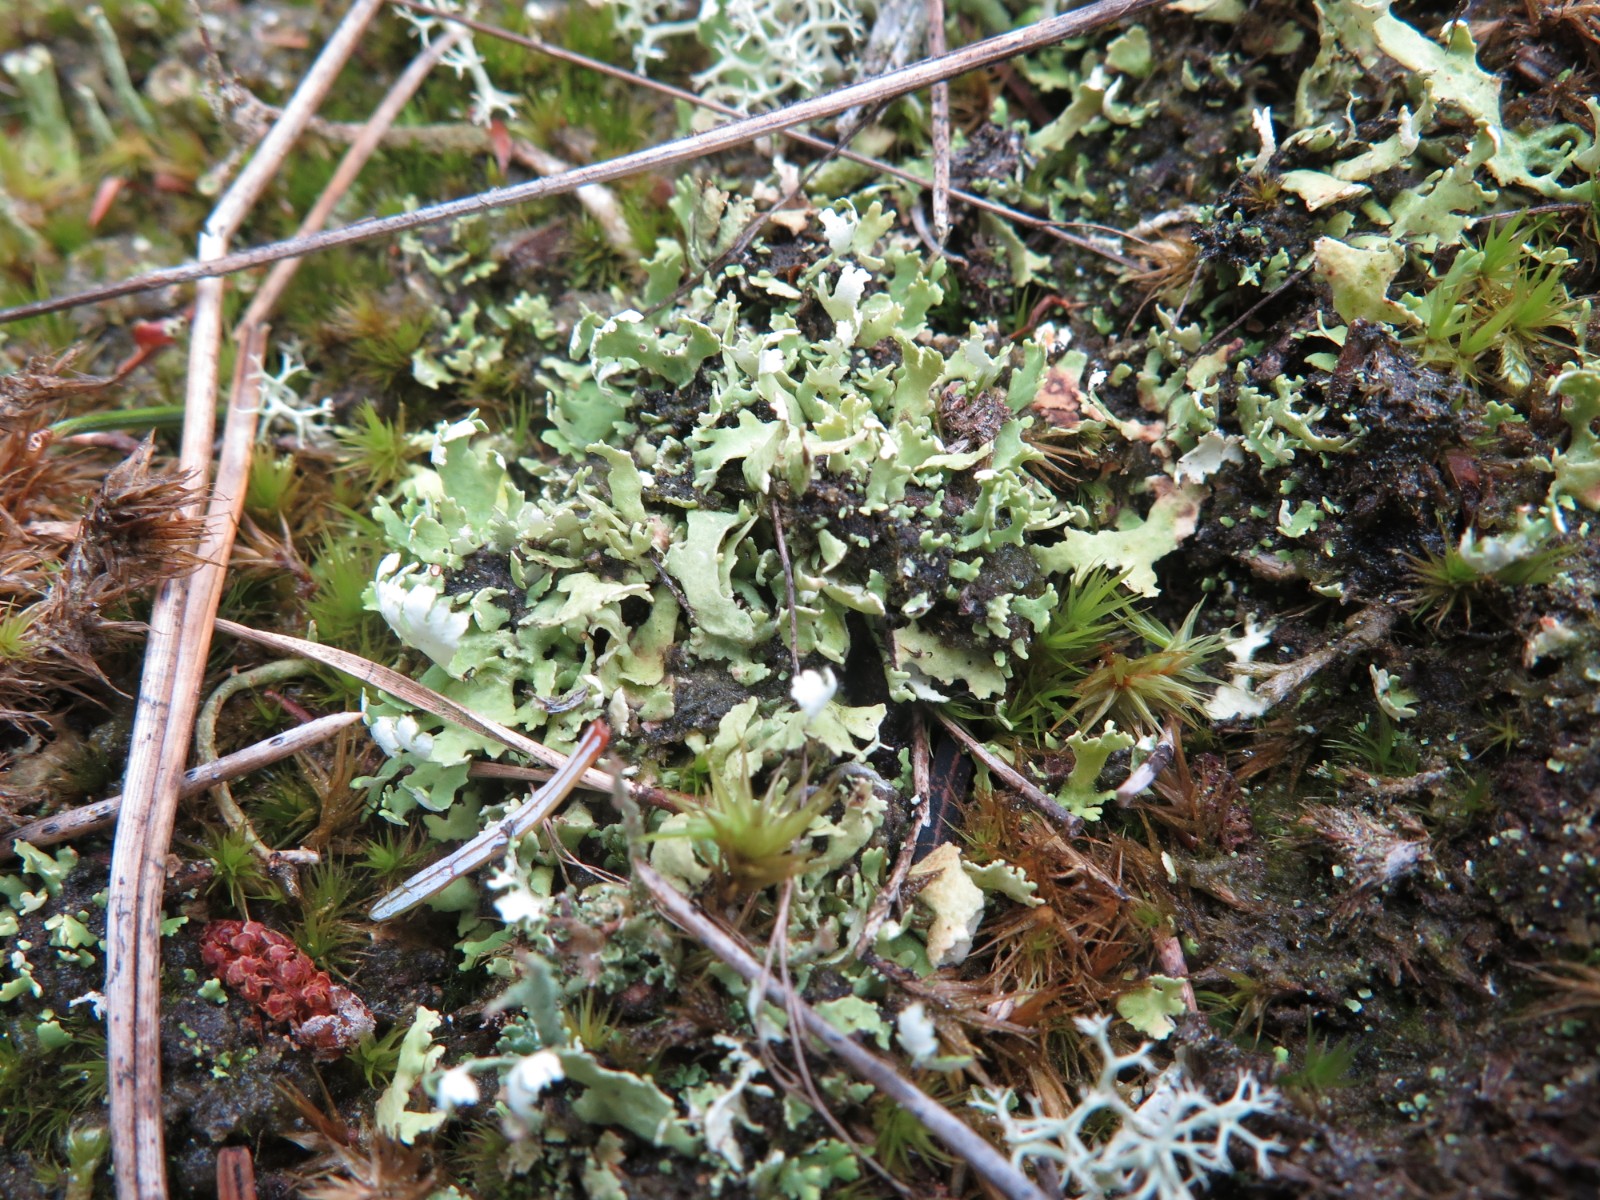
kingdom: Fungi
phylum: Ascomycota
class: Lecanoromycetes
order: Lecanorales
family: Cladoniaceae
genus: Cladonia
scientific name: Cladonia foliacea
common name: fliget bægerlav
